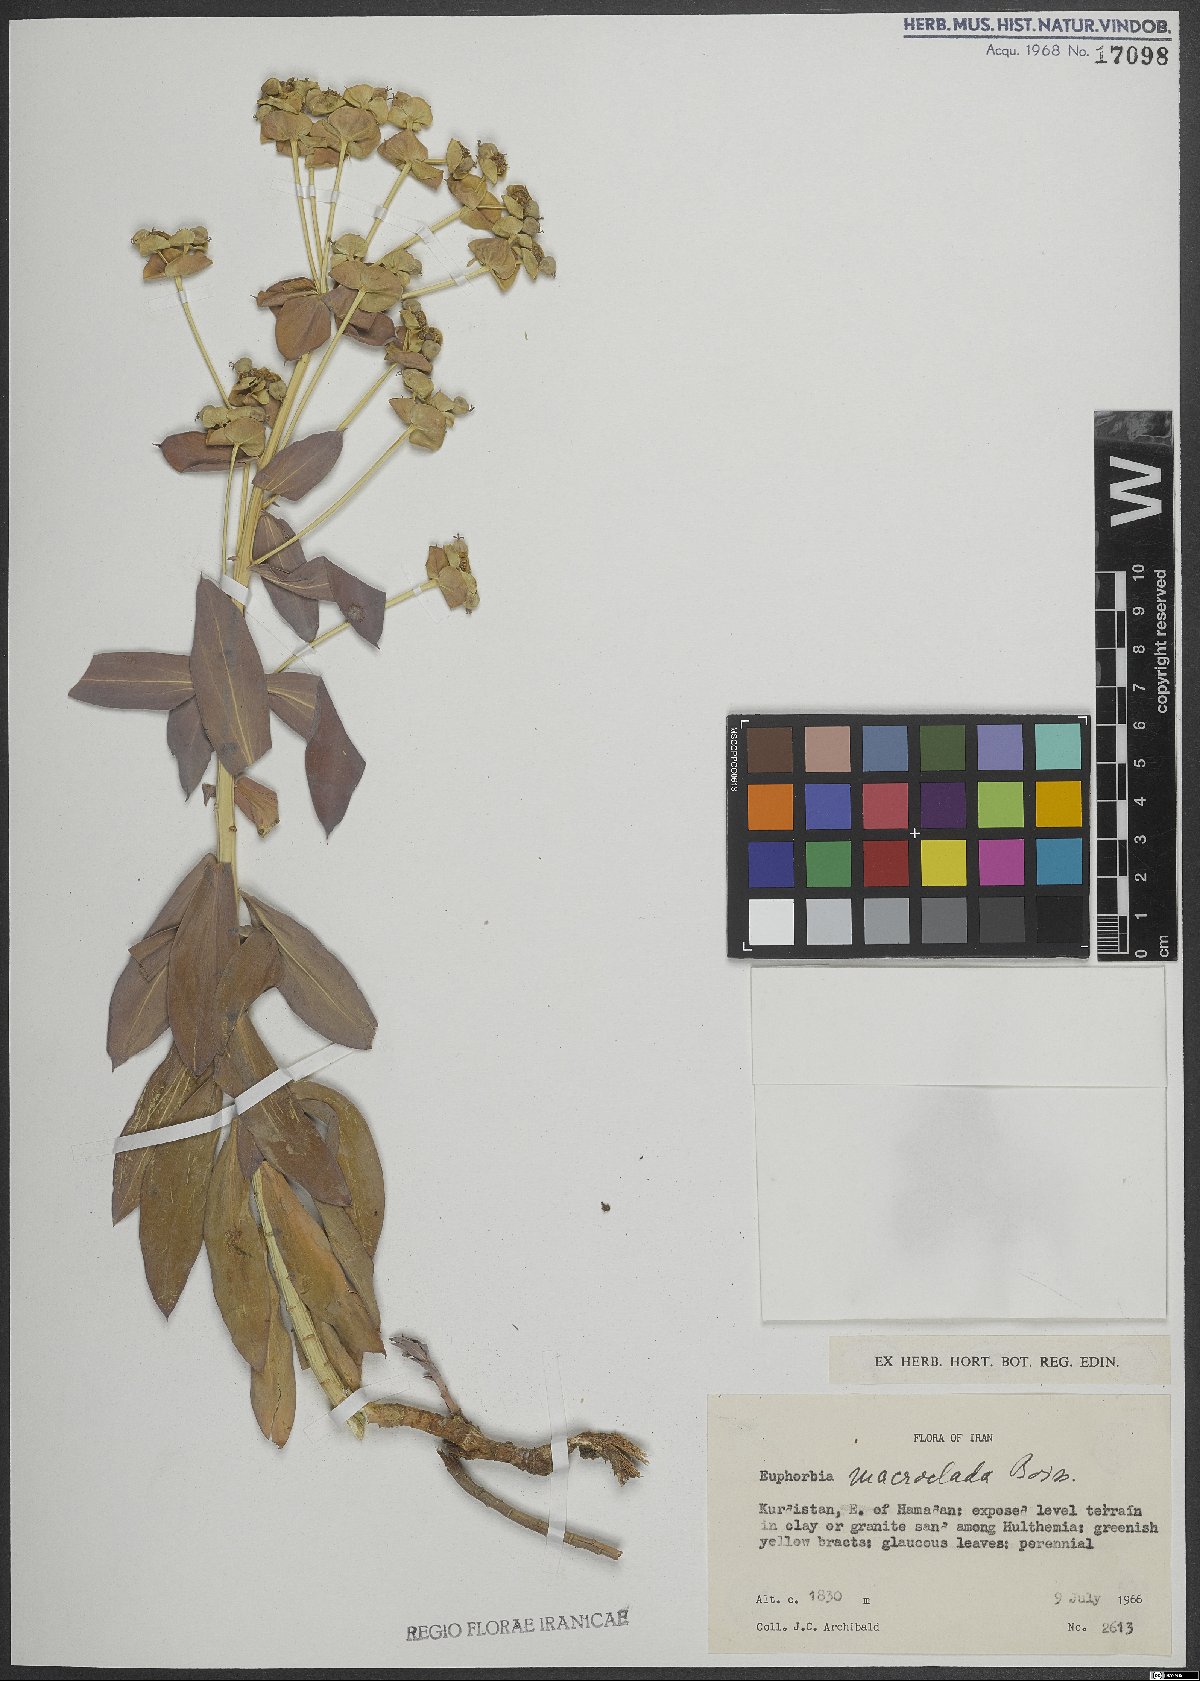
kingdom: Plantae
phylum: Tracheophyta
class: Magnoliopsida
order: Malpighiales
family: Euphorbiaceae
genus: Euphorbia
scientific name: Euphorbia macroclada
